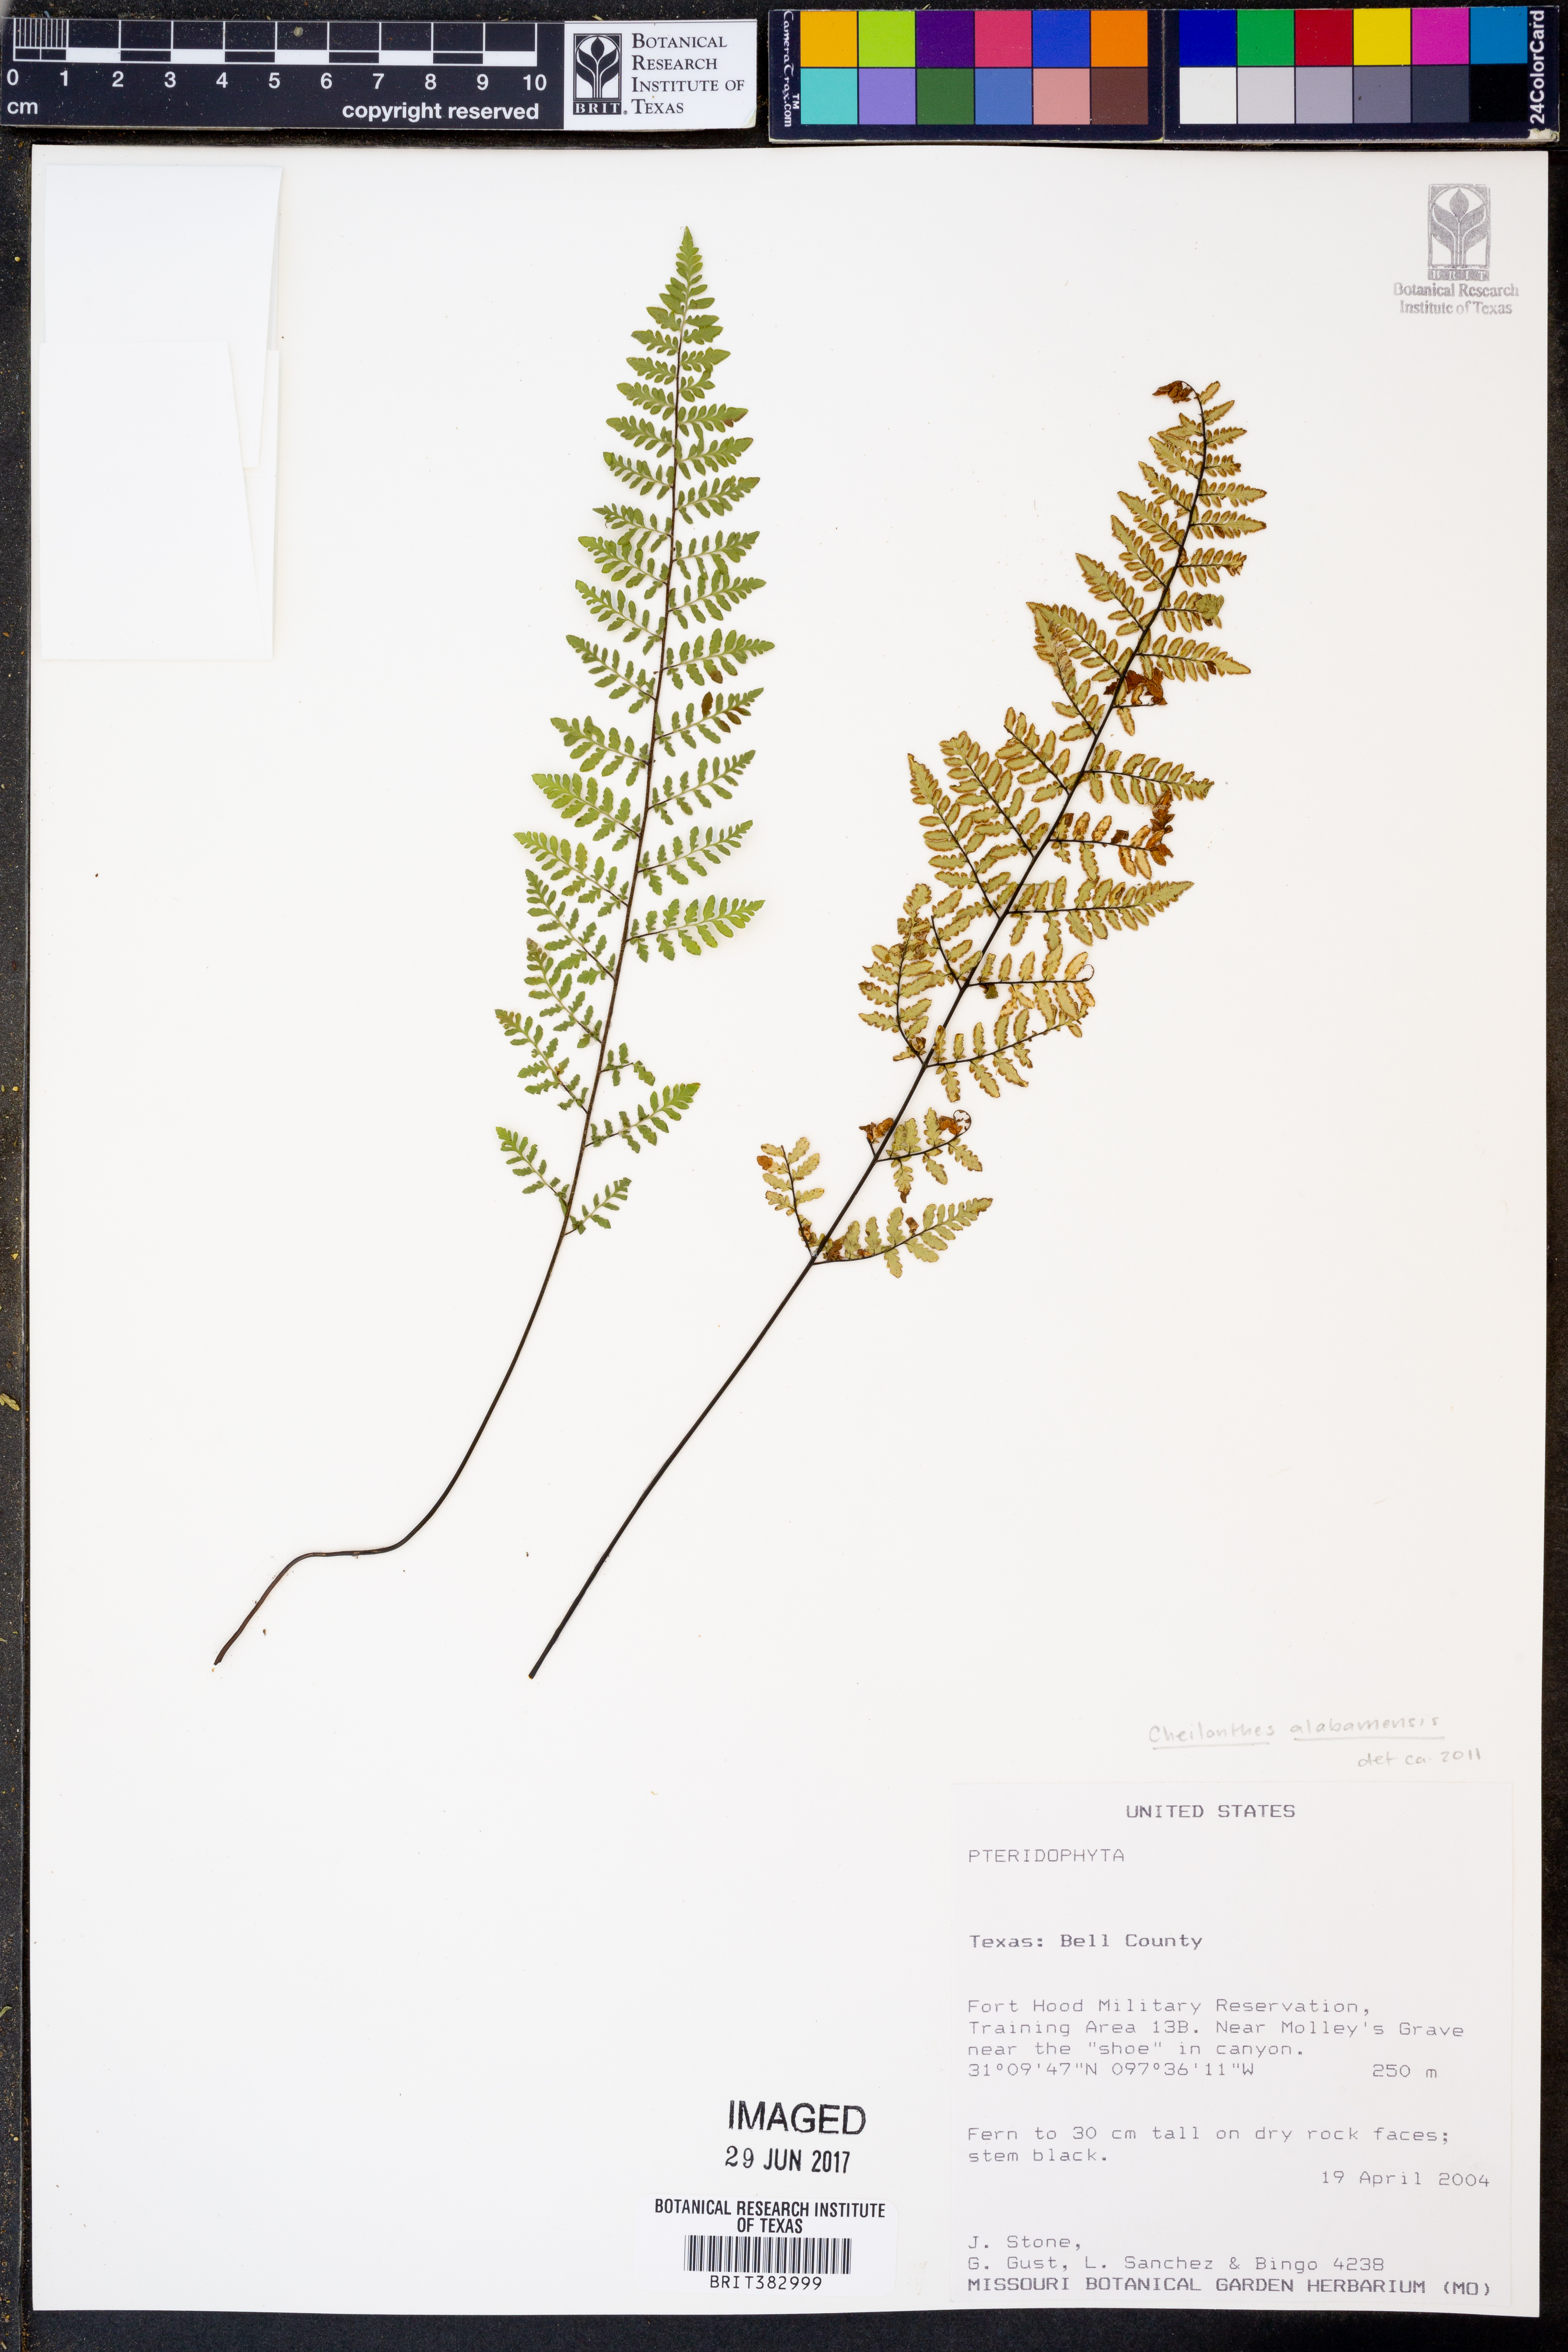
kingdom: Plantae
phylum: Tracheophyta
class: Polypodiopsida
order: Polypodiales
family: Pteridaceae
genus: Myriopteris
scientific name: Myriopteris alabamensis
